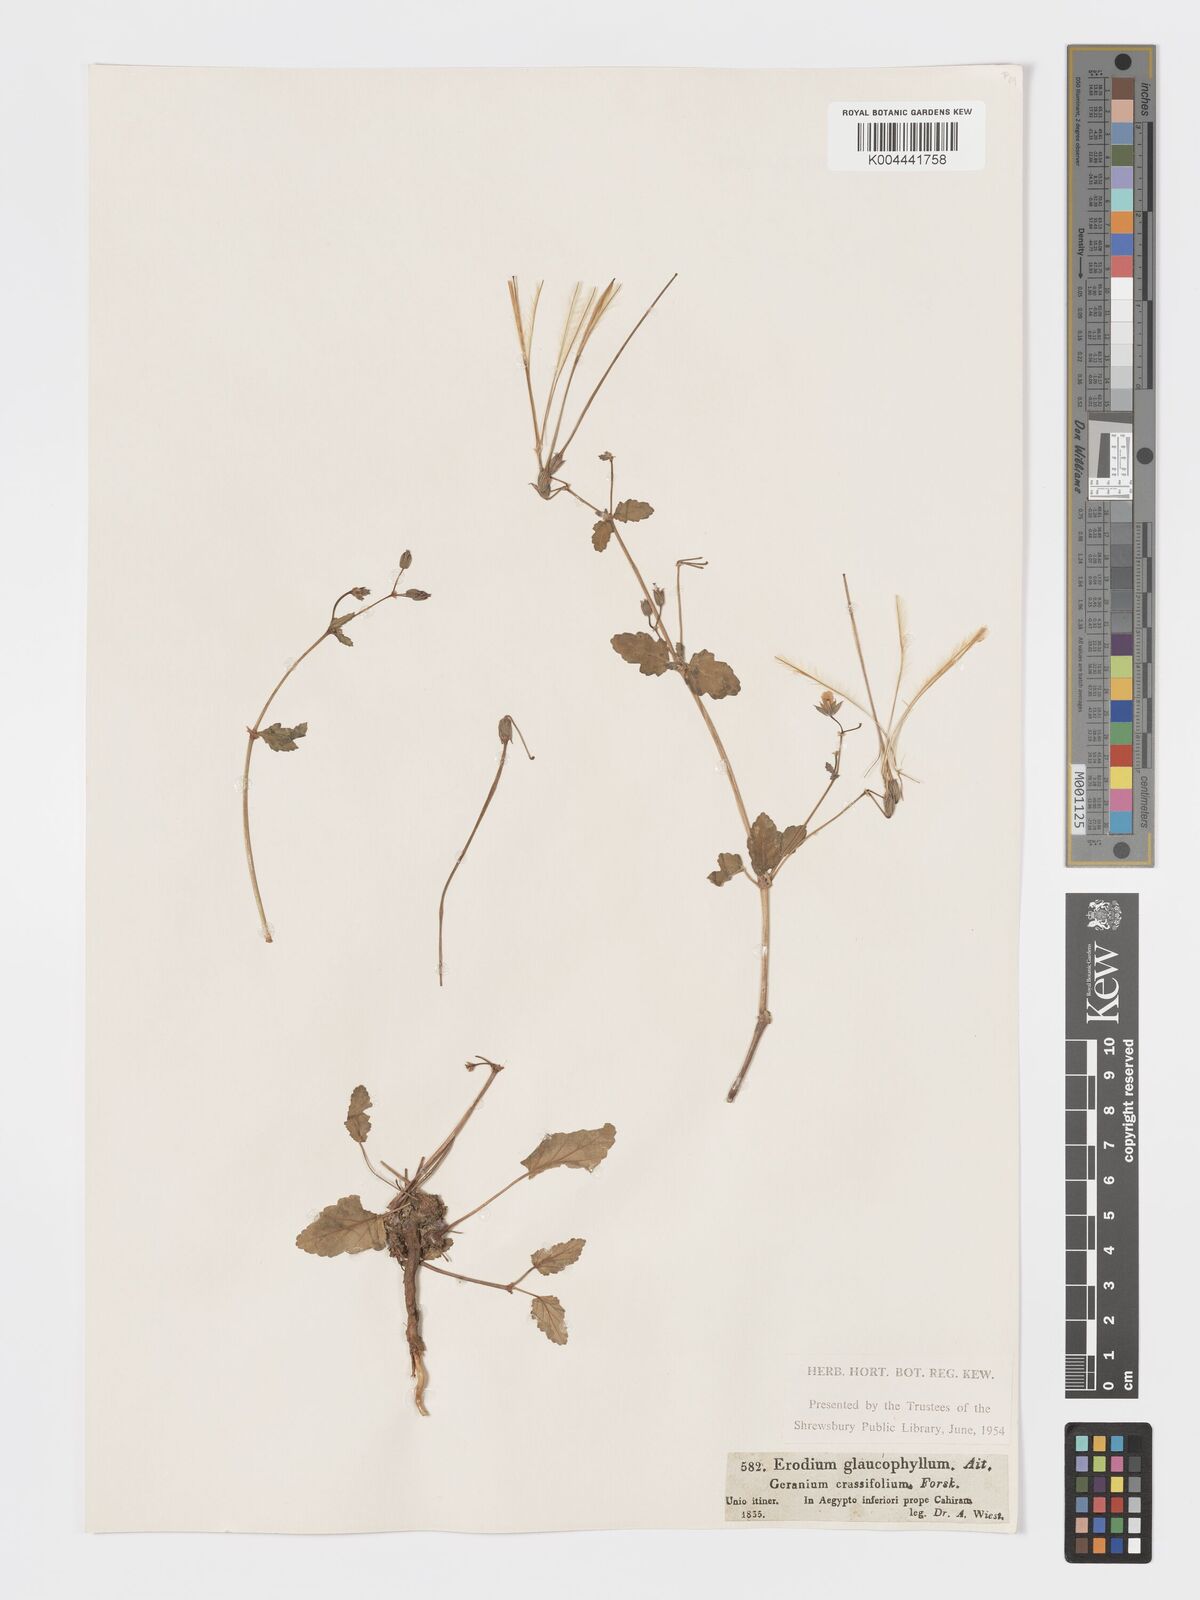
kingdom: Plantae
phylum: Tracheophyta
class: Magnoliopsida
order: Geraniales
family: Geraniaceae
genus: Erodium
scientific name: Erodium glaucophyllum
